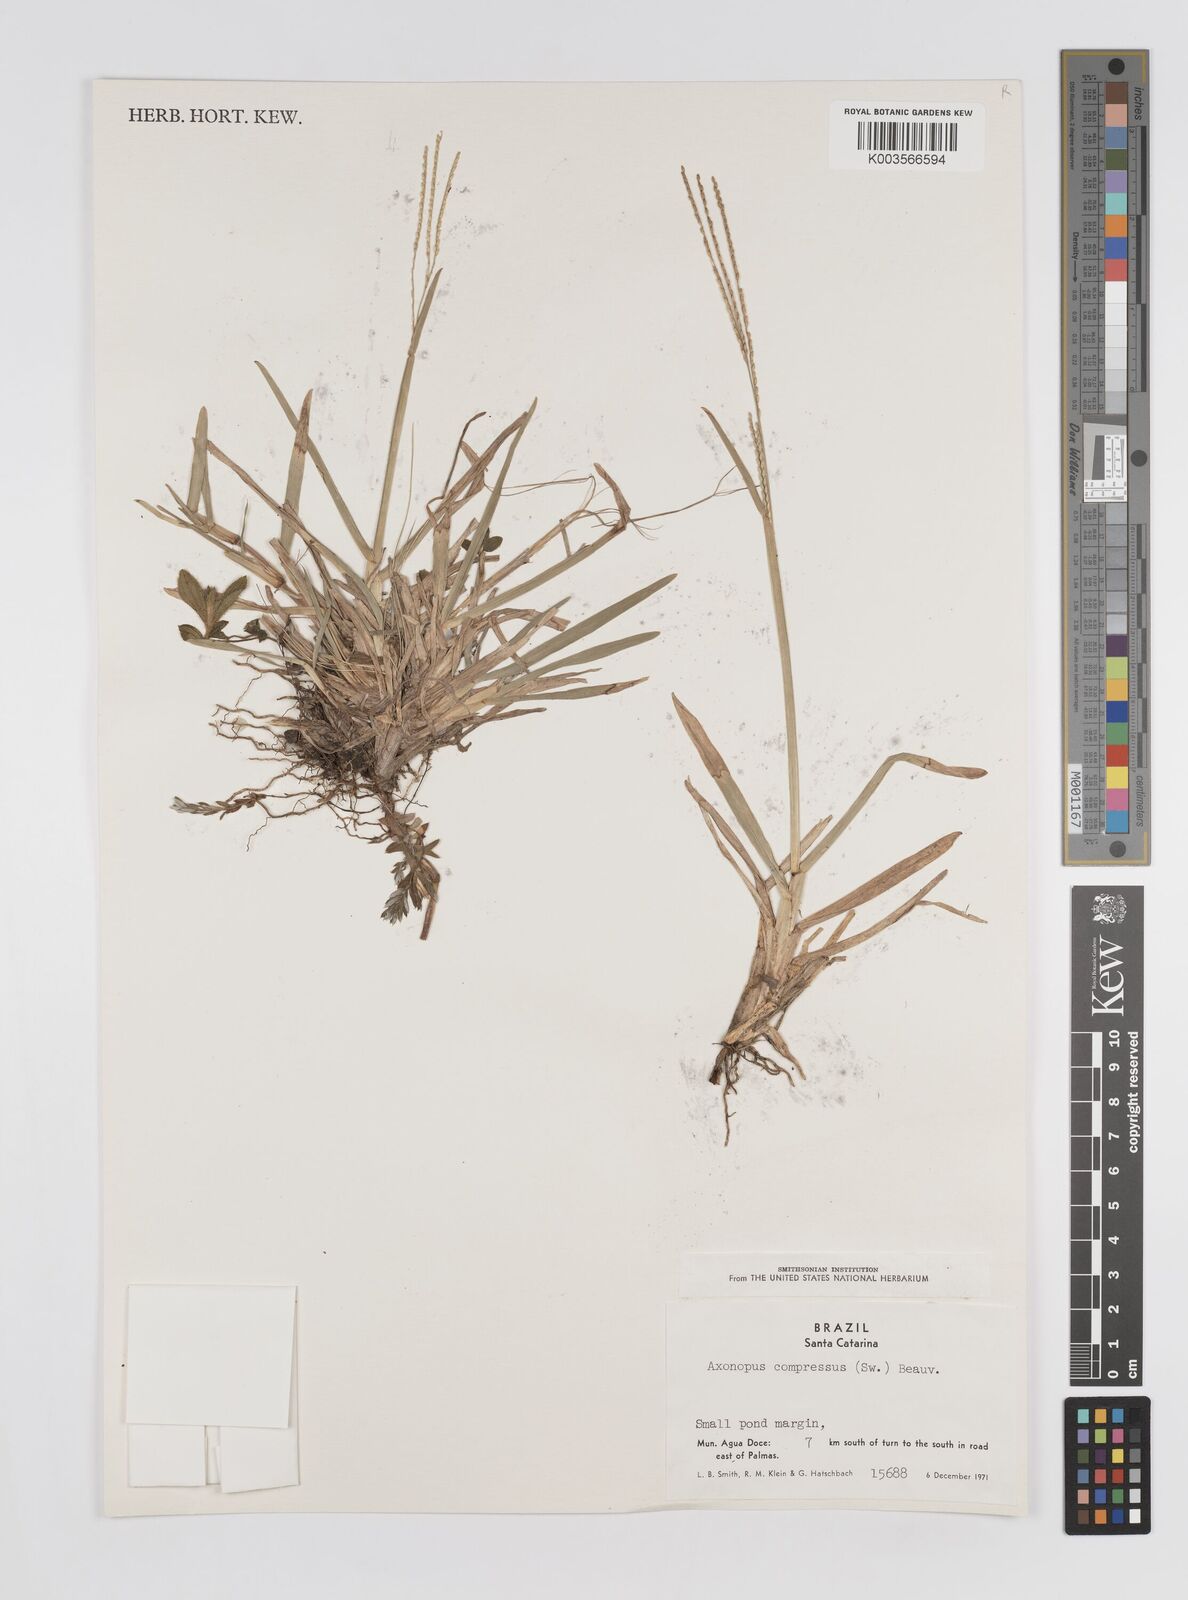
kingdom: Plantae
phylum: Tracheophyta
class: Liliopsida
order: Poales
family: Poaceae
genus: Axonopus
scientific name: Axonopus compressus
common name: American carpet grass
